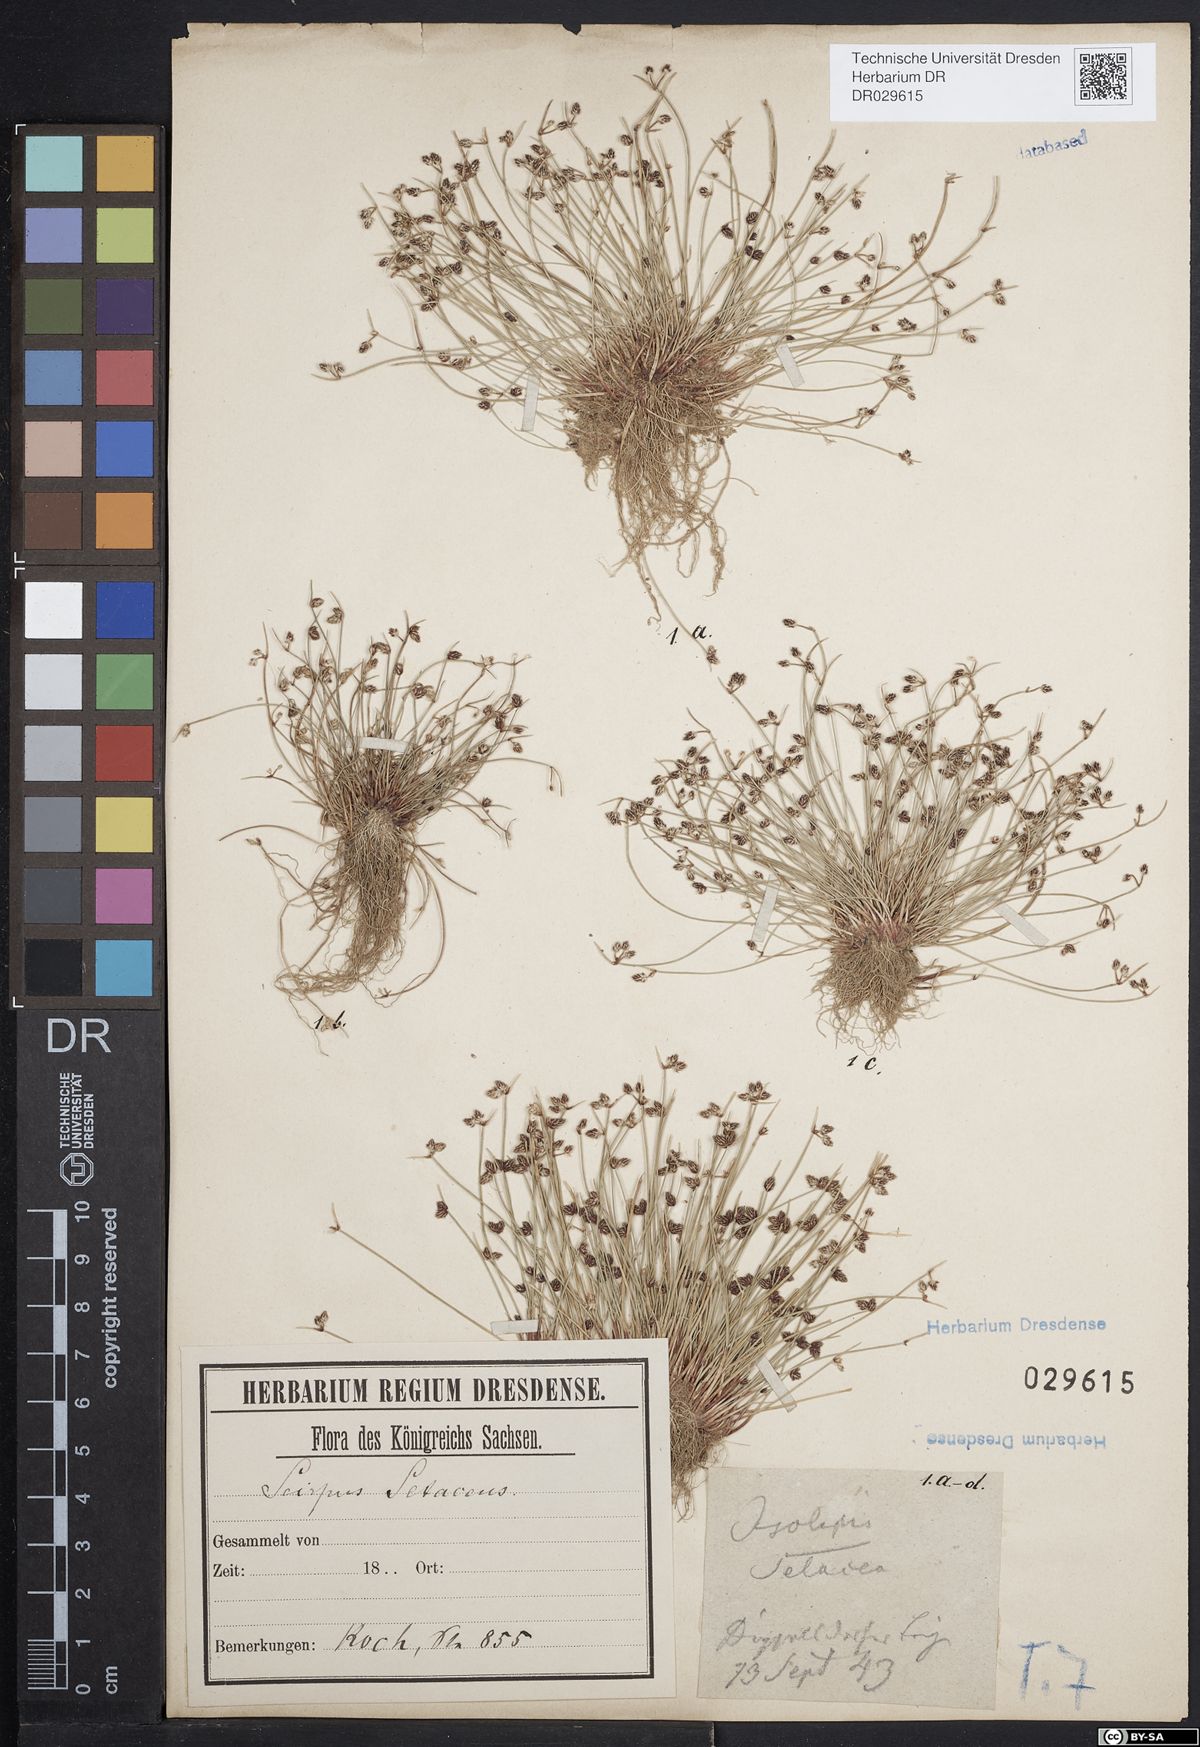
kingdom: Plantae
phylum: Tracheophyta
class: Liliopsida
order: Poales
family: Cyperaceae
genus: Isolepis
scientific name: Isolepis setacea
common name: Bristle club-rush
